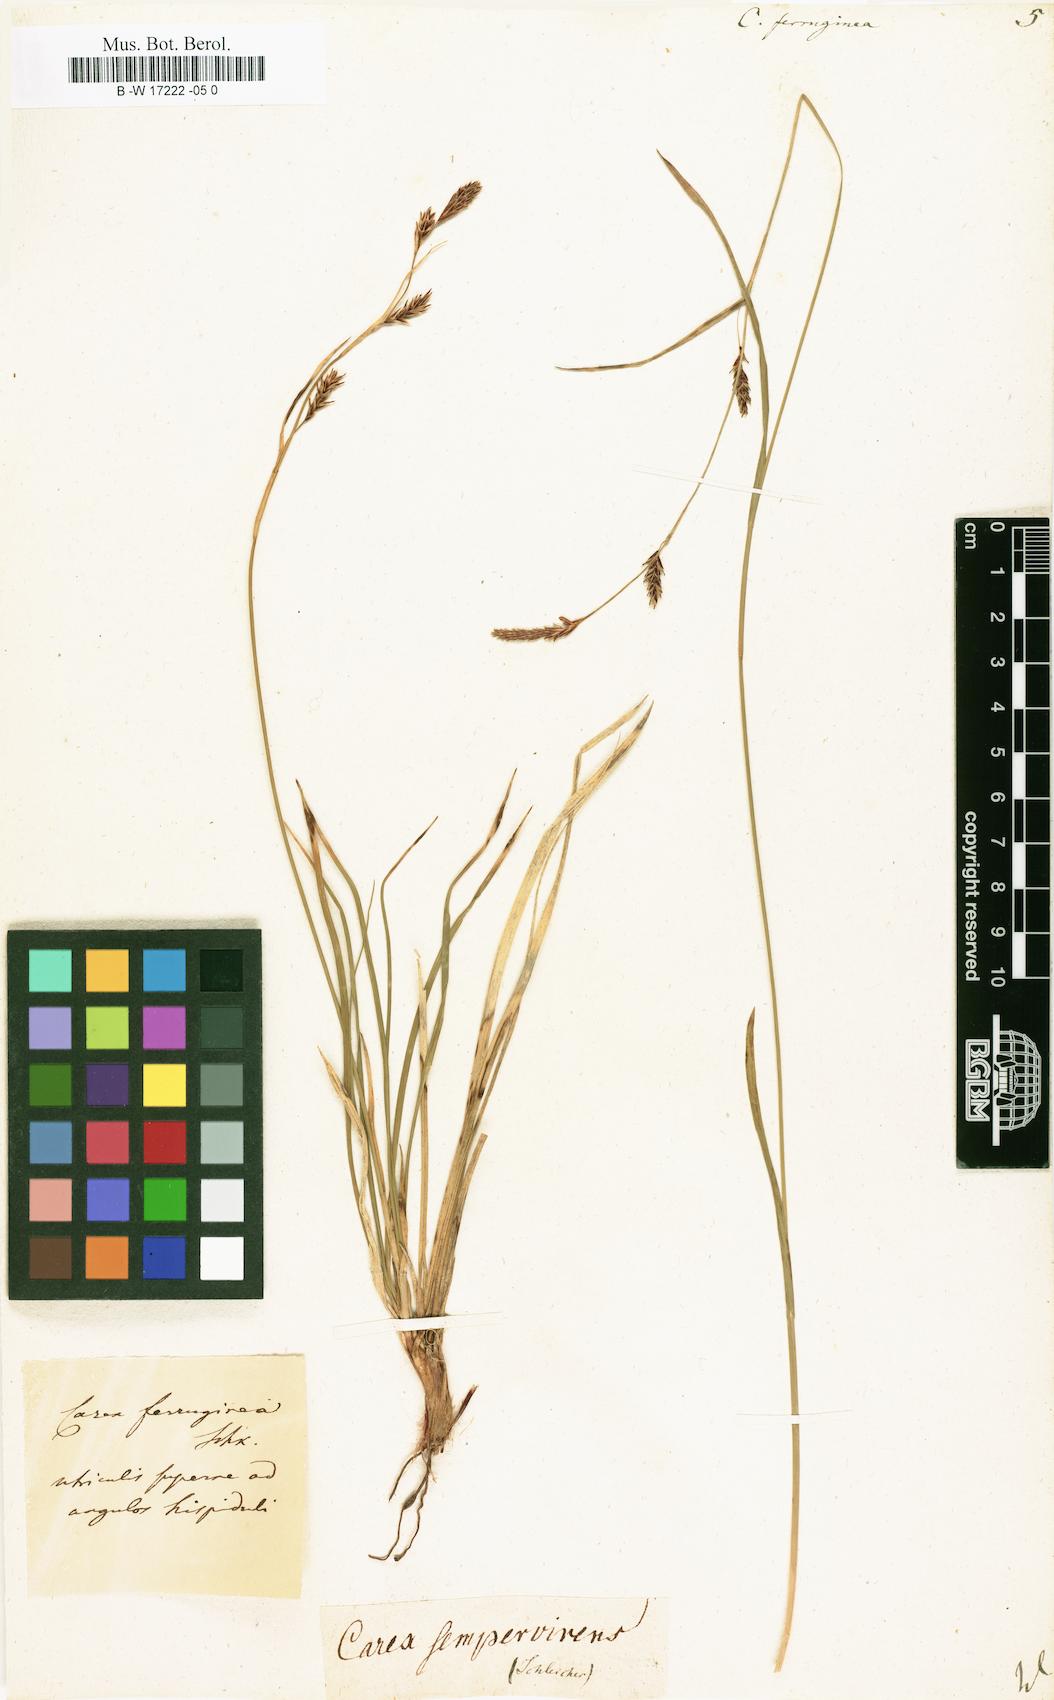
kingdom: Plantae
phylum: Tracheophyta
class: Liliopsida
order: Poales
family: Cyperaceae
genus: Carex
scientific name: Carex ferruginea
